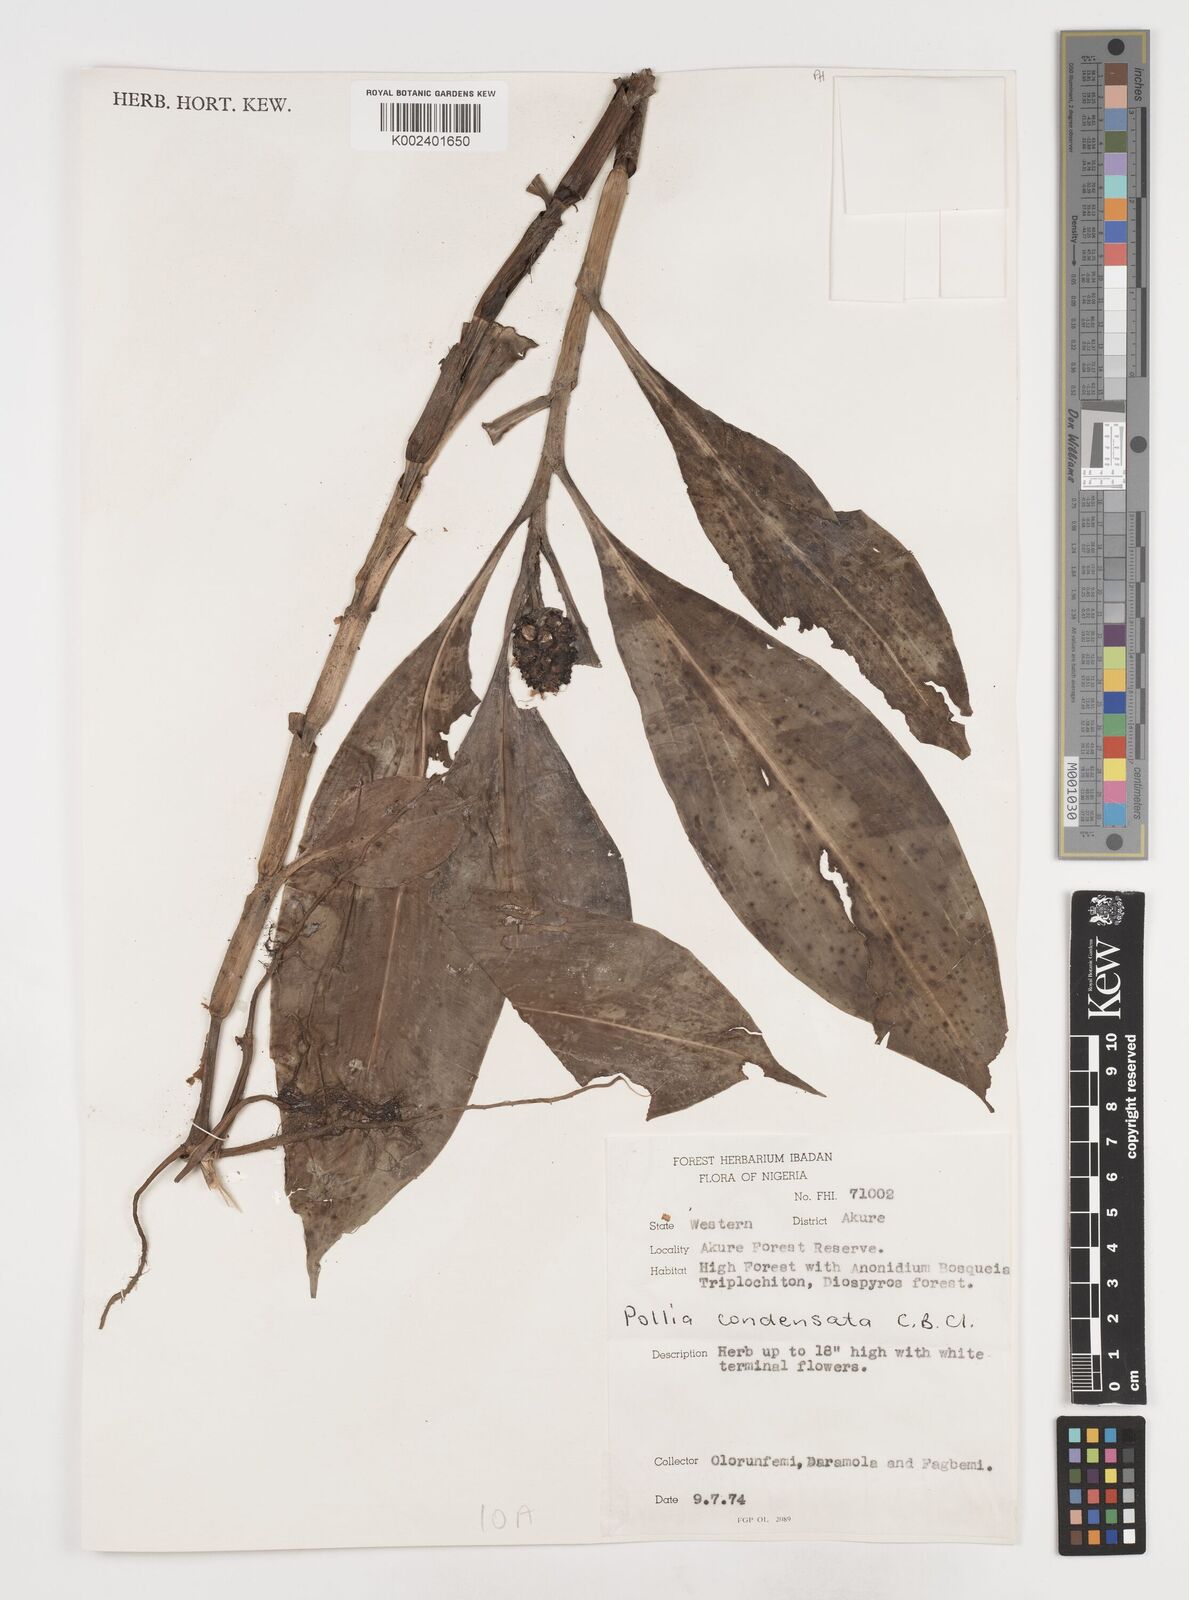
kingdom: Plantae
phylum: Tracheophyta
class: Liliopsida
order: Commelinales
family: Commelinaceae
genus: Pollia
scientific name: Pollia condensata
